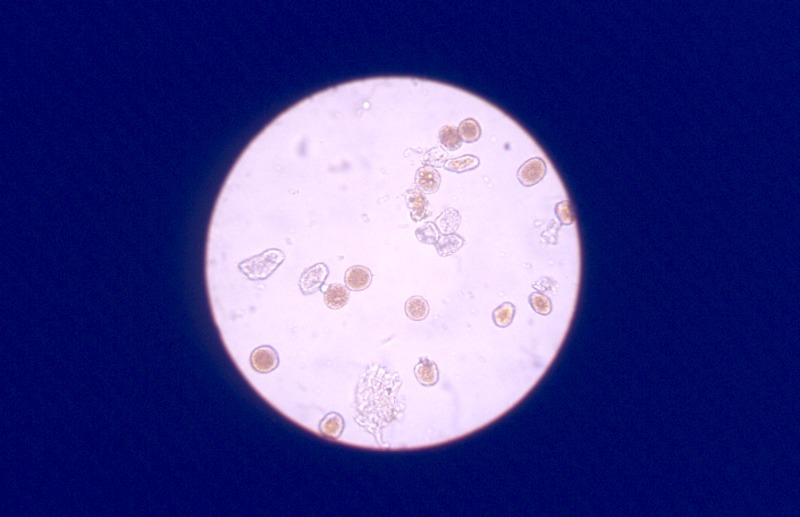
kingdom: Plantae
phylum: Tracheophyta
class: Magnoliopsida
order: Malpighiales
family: Euphorbiaceae
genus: Euphorbia
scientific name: Euphorbia cyparissias
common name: Cypress spurge
